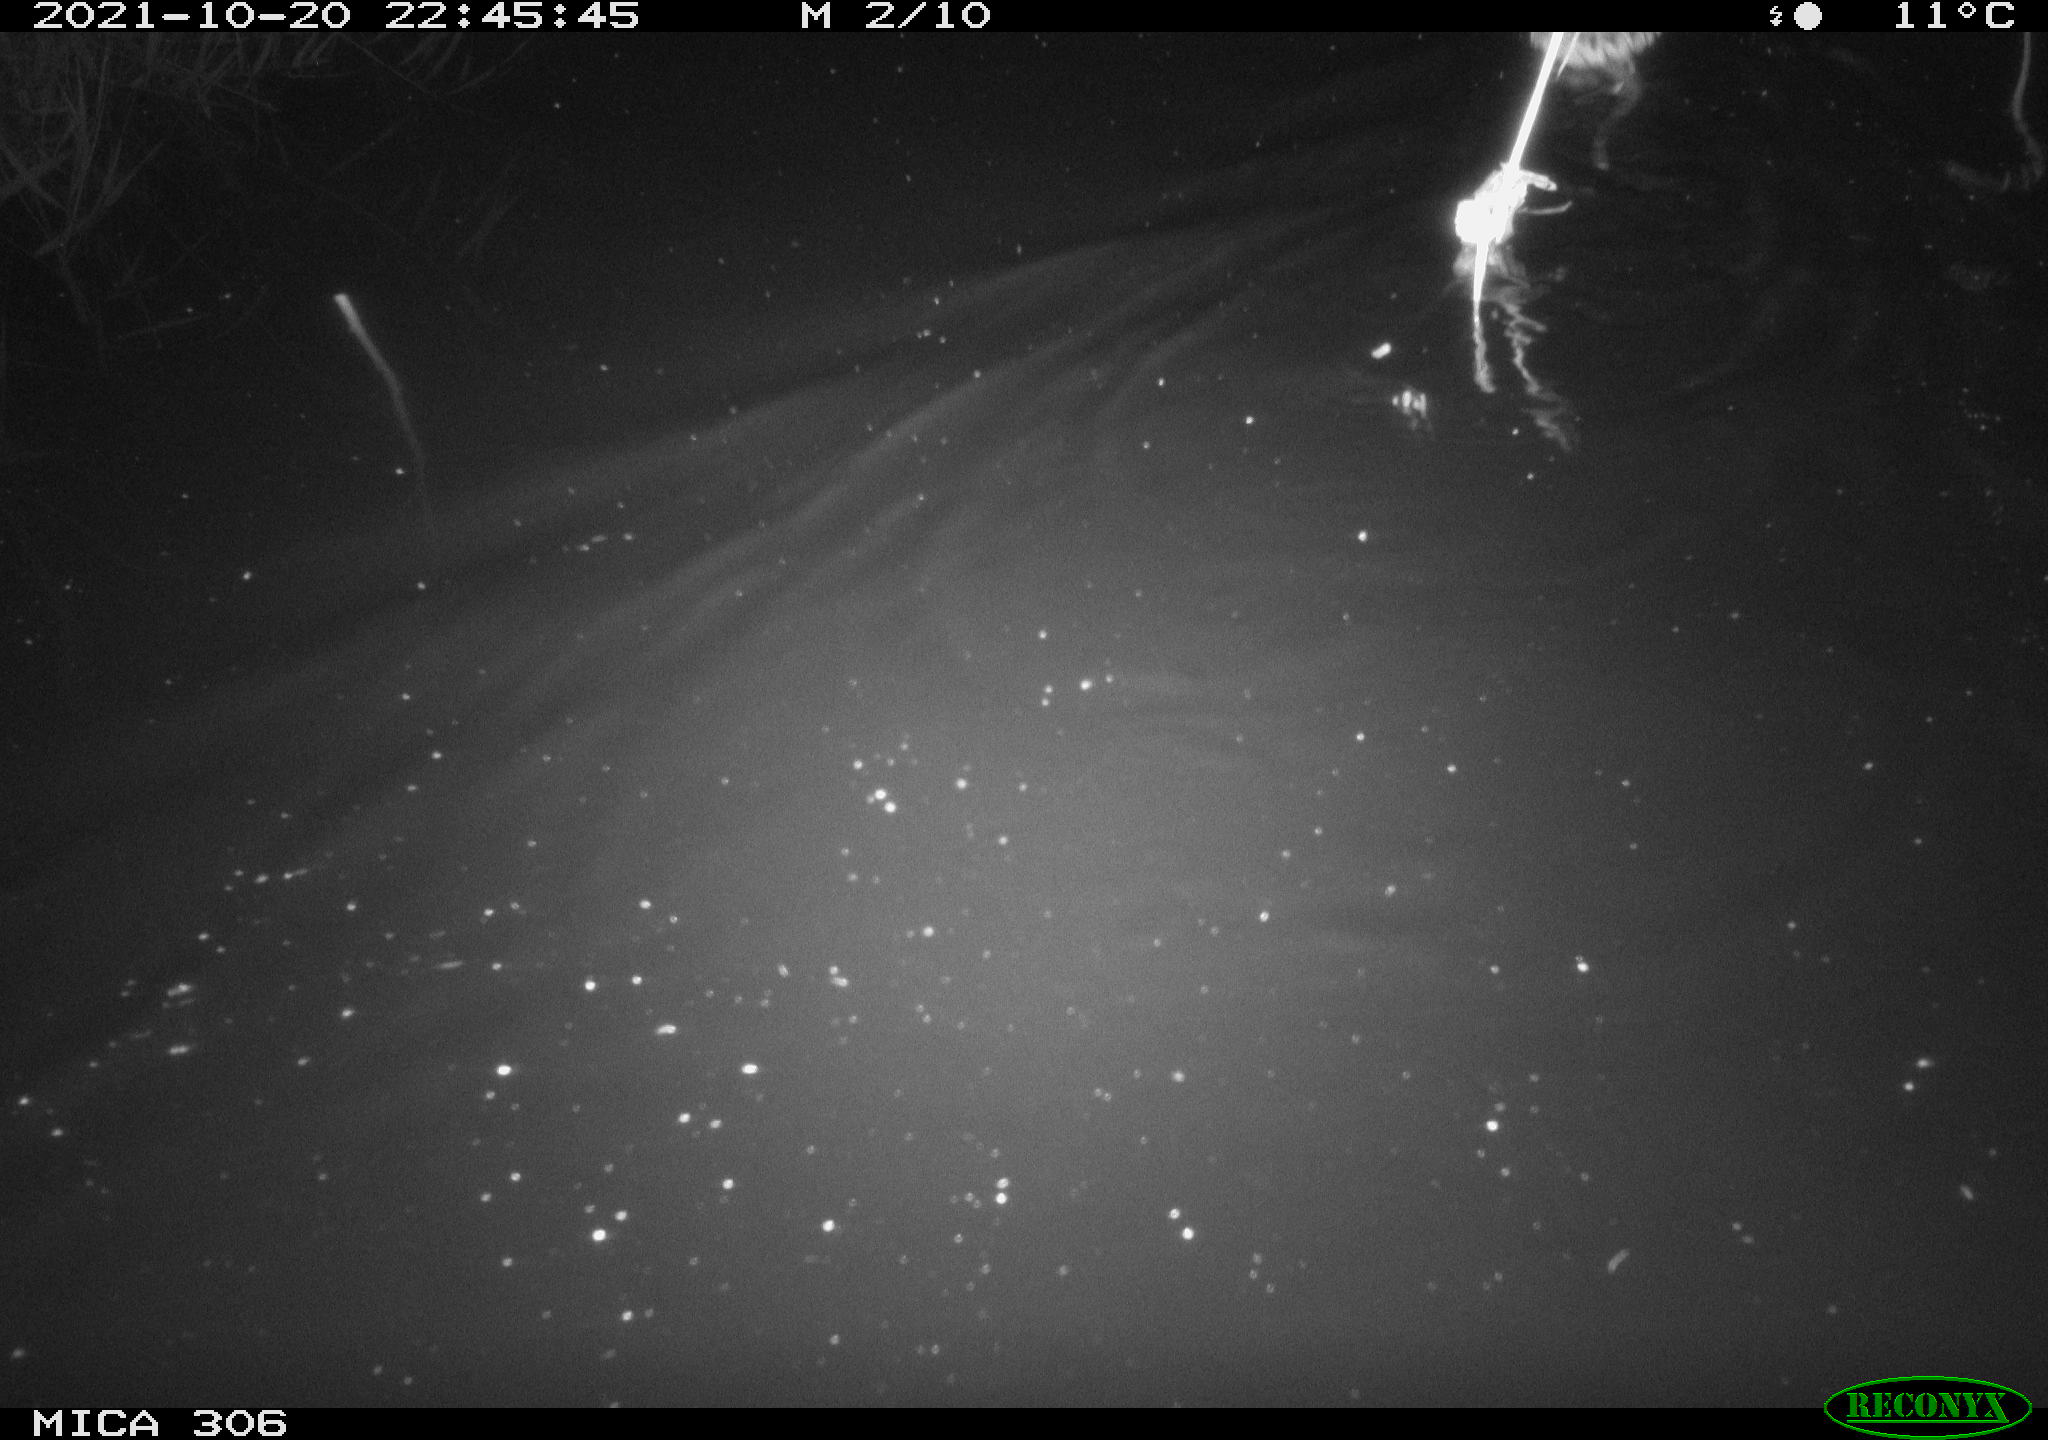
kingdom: Animalia
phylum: Chordata
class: Mammalia
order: Rodentia
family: Cricetidae
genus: Ondatra
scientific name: Ondatra zibethicus
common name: Muskrat
